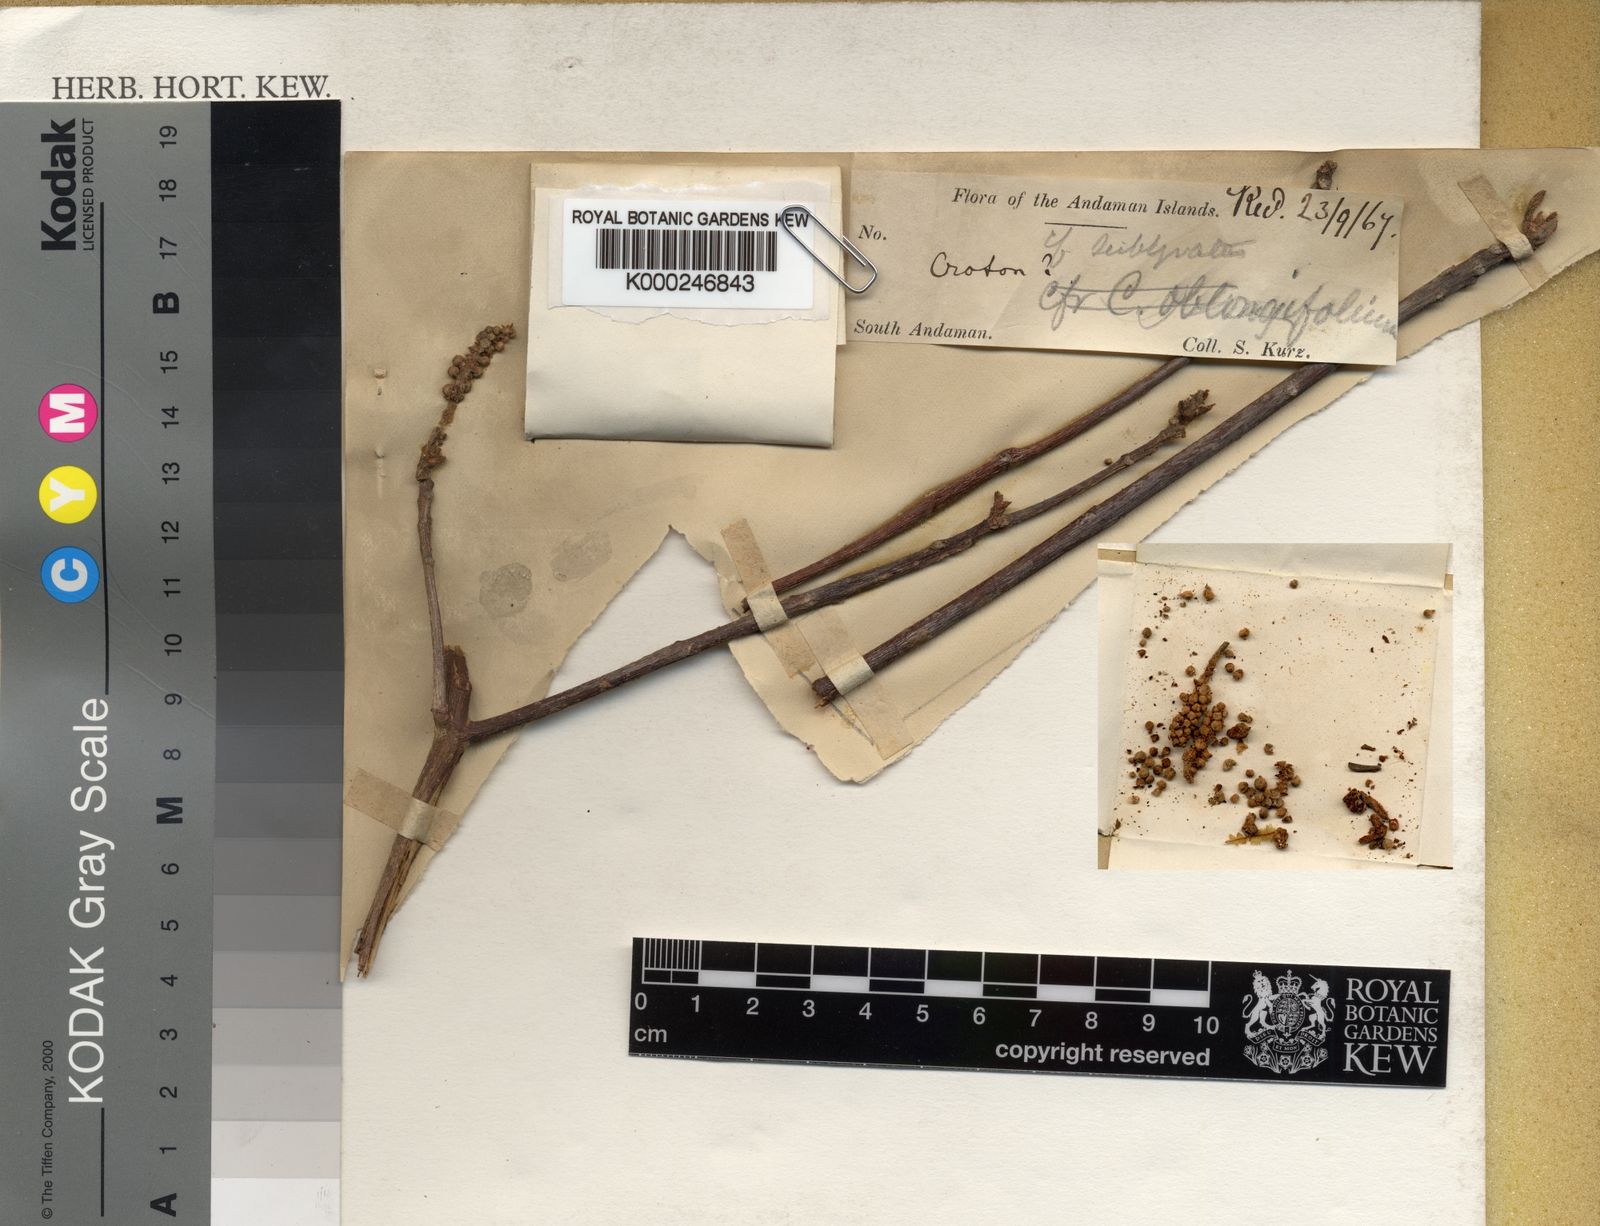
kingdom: Plantae
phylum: Tracheophyta
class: Magnoliopsida
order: Malpighiales
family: Euphorbiaceae
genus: Croton
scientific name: Croton sublyratus
